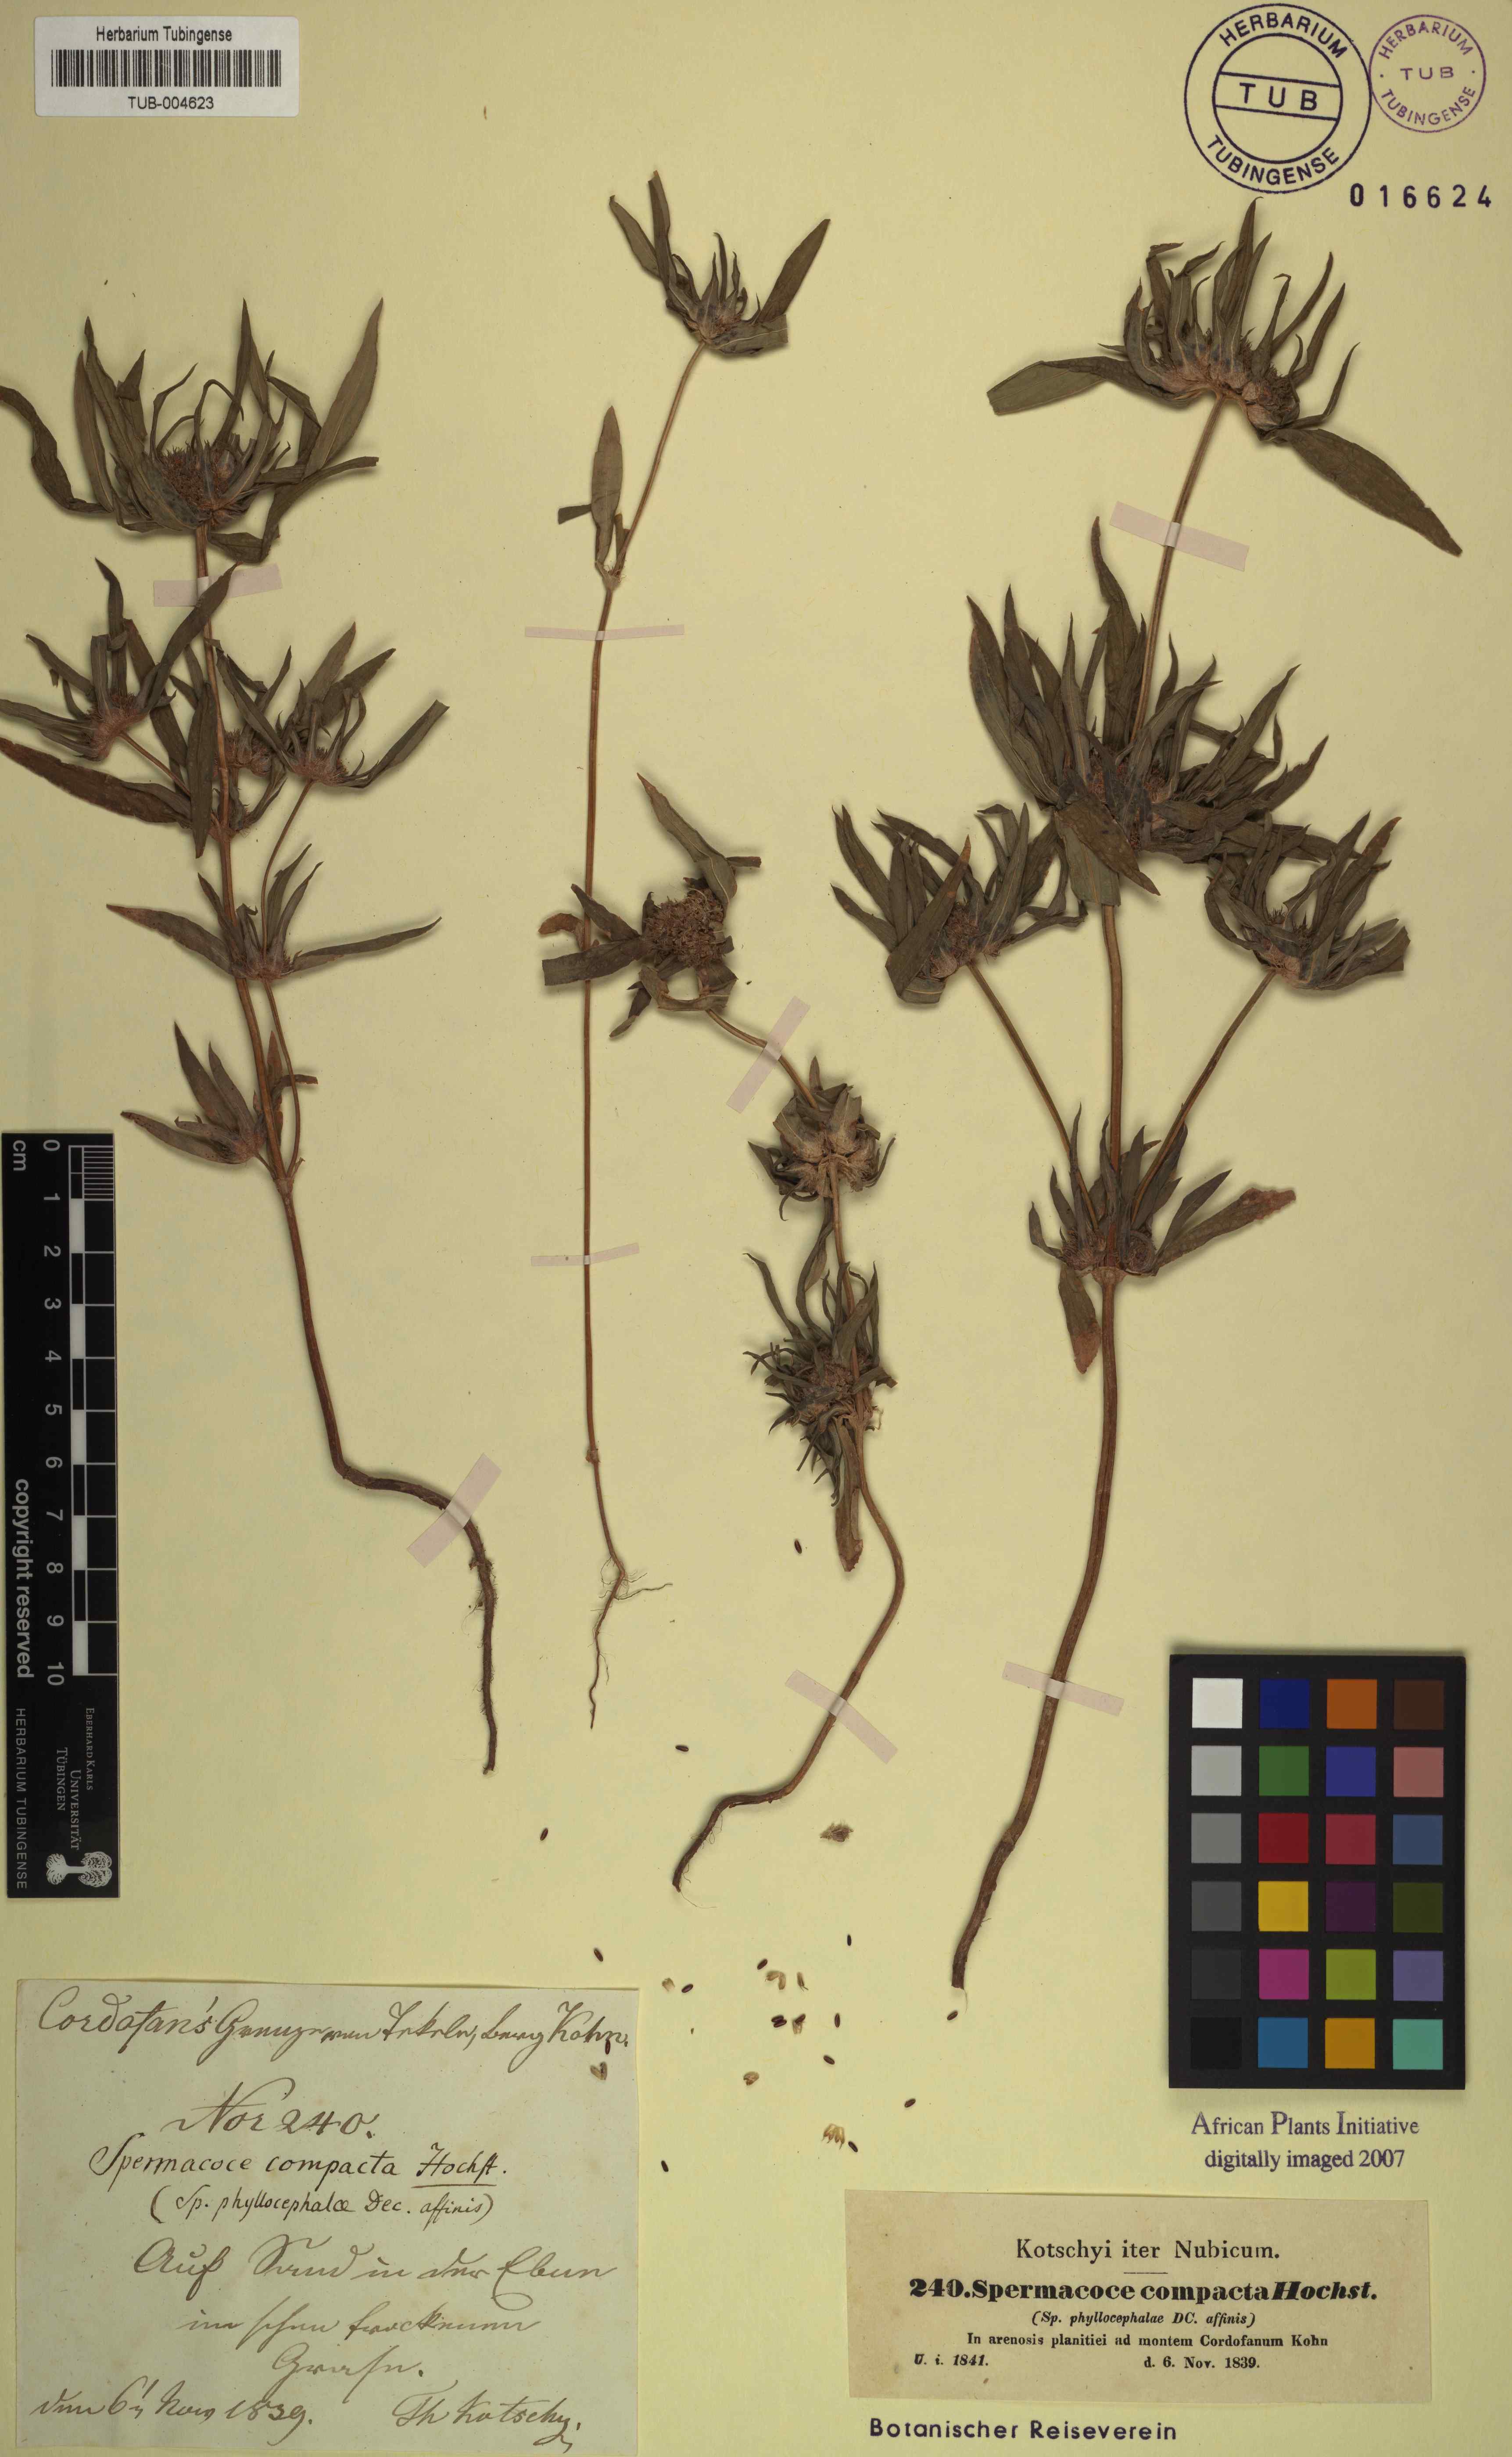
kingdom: Plantae
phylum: Tracheophyta
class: Magnoliopsida
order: Gentianales
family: Rubiaceae
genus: Spermacoce
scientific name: Spermacoce chaetocephala
